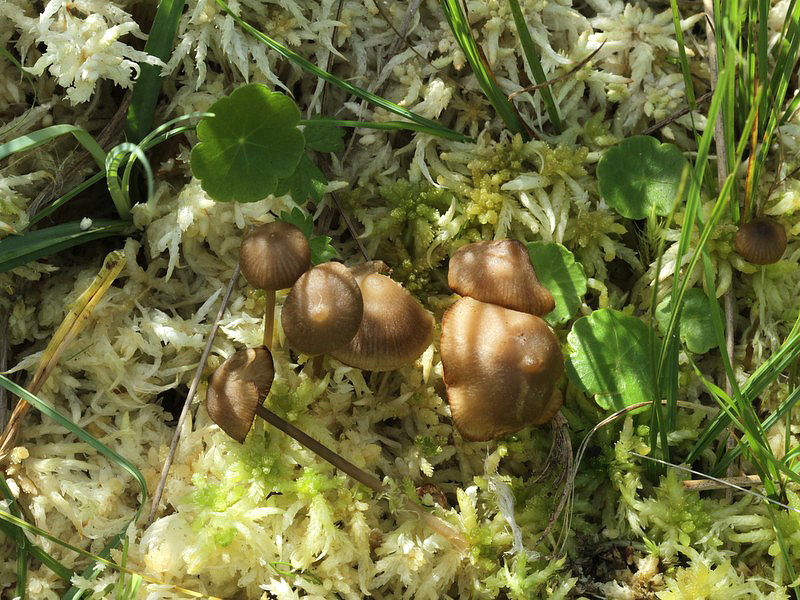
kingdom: Fungi
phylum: Basidiomycota
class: Agaricomycetes
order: Agaricales
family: Lyophyllaceae
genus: Sphagnurus
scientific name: Sphagnurus paluster
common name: tørvemos-gråblad
